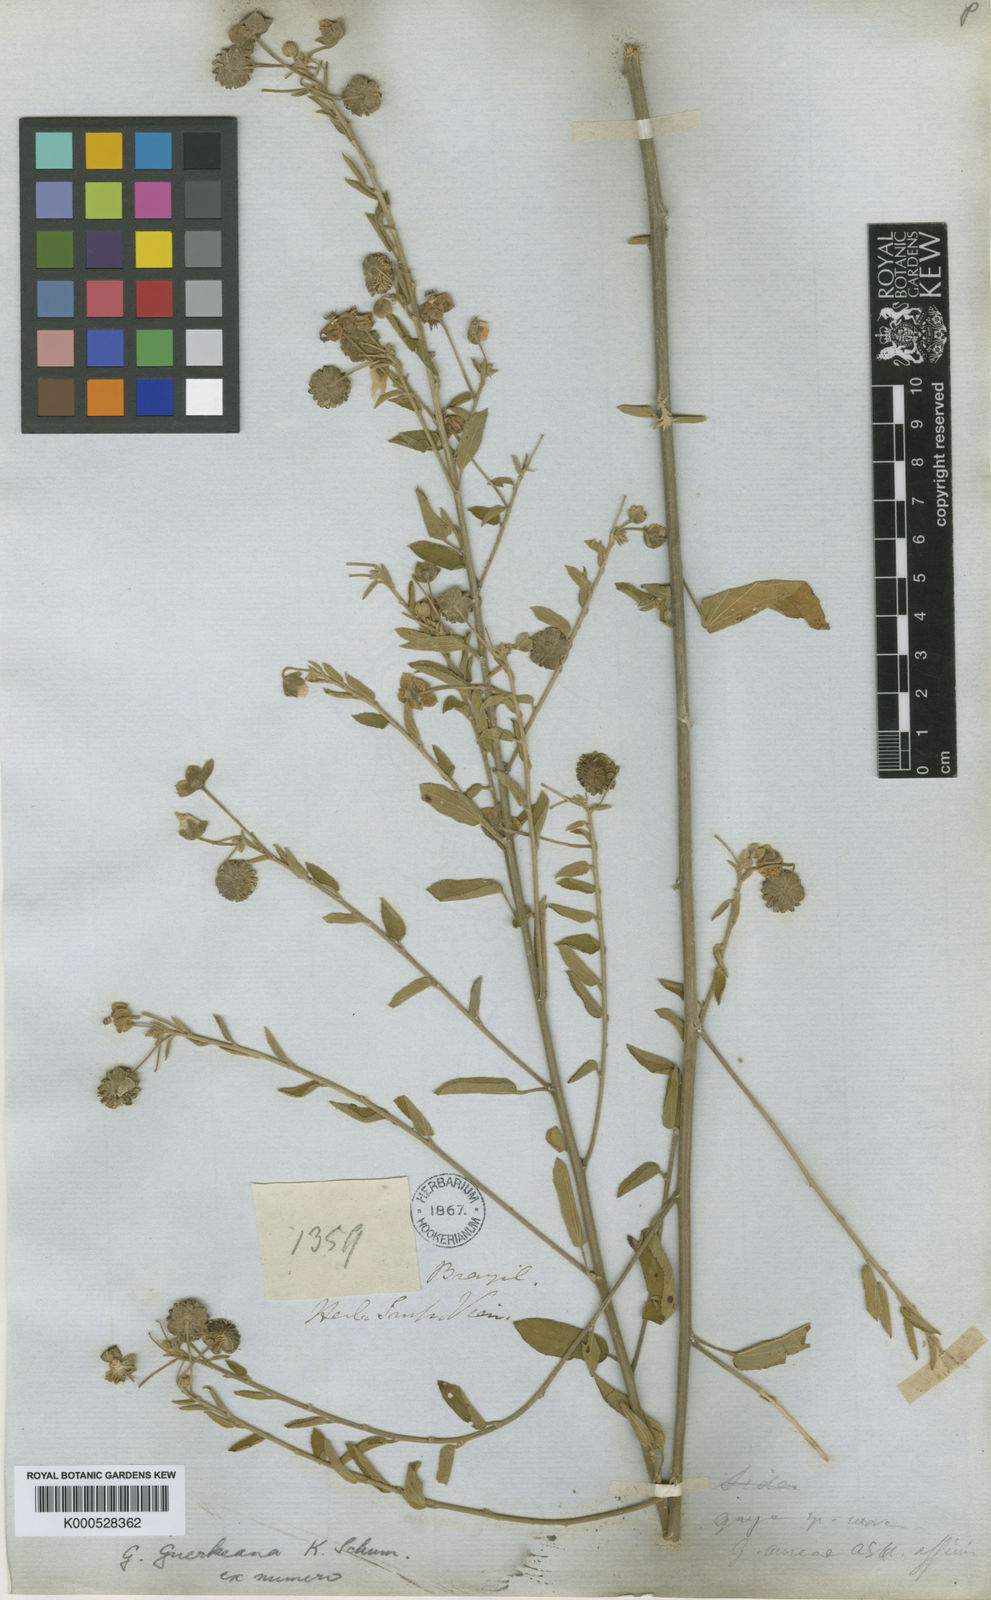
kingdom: Plantae
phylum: Tracheophyta
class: Magnoliopsida
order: Malvales
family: Malvaceae
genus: Gaya
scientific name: Gaya guerkeana
